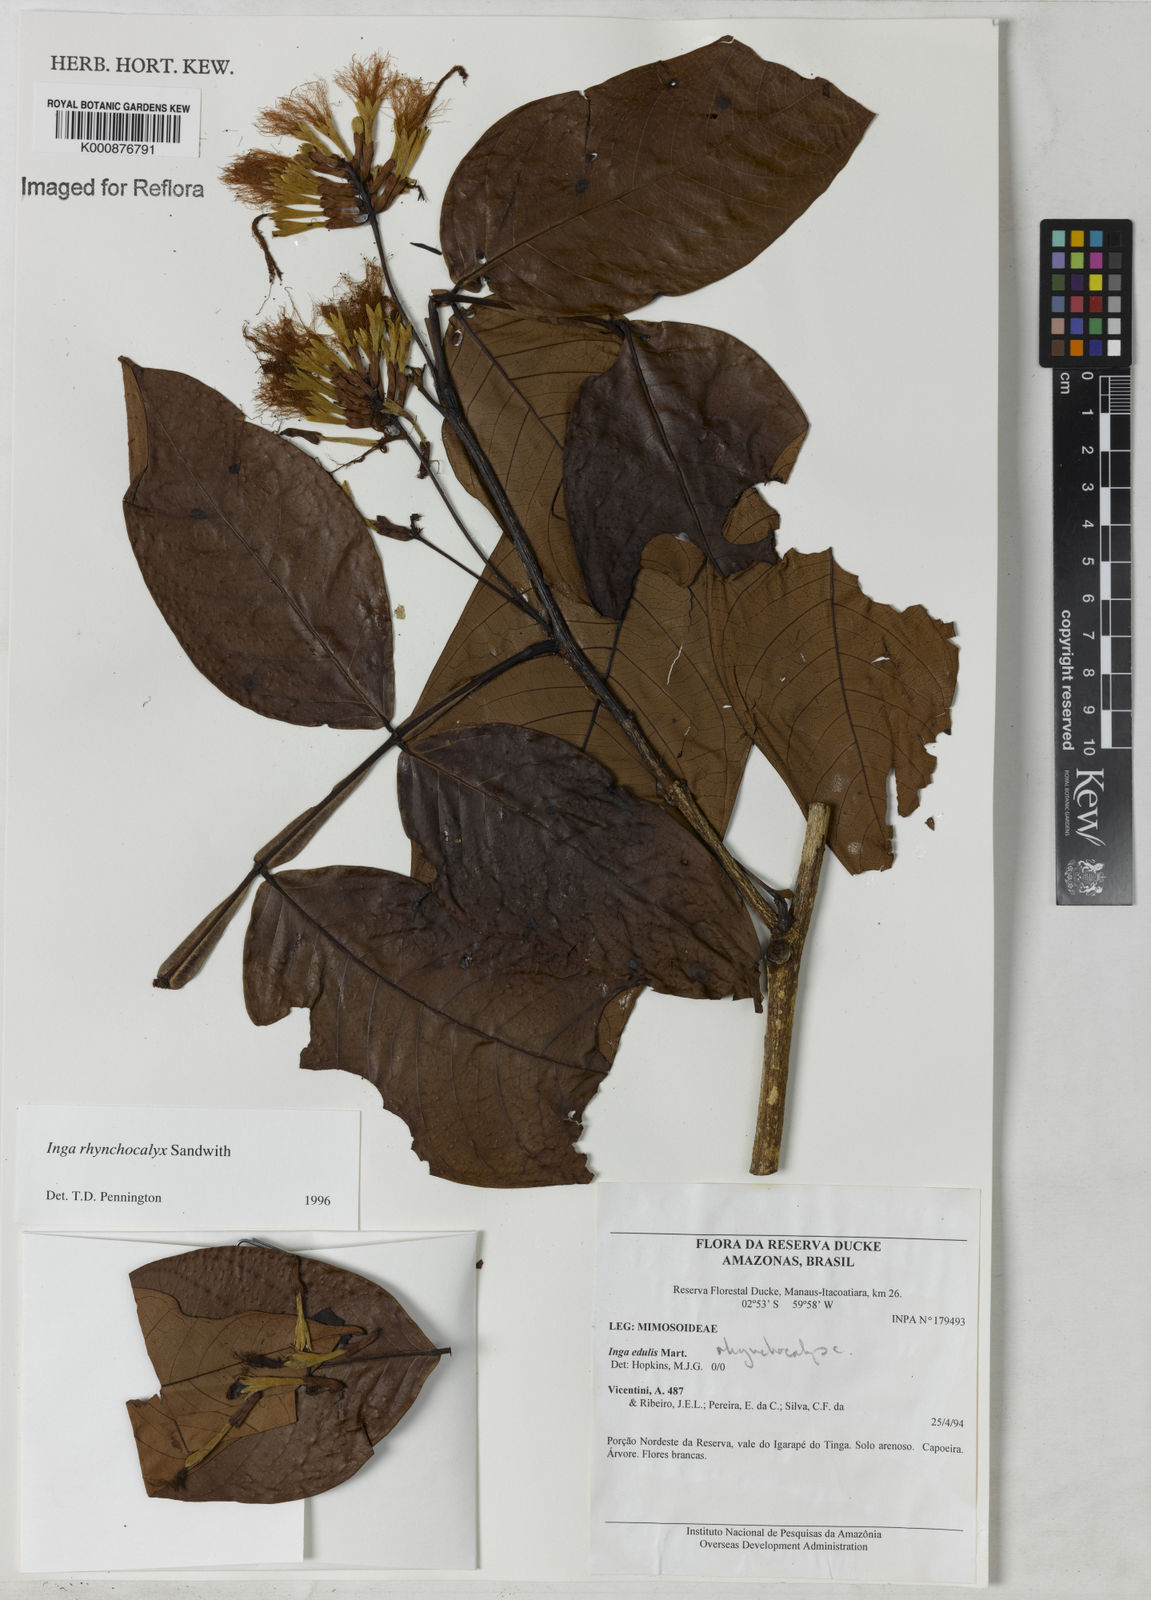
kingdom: Plantae
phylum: Tracheophyta
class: Magnoliopsida
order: Fabales
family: Fabaceae
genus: Inga
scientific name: Inga rhynchocalyx
